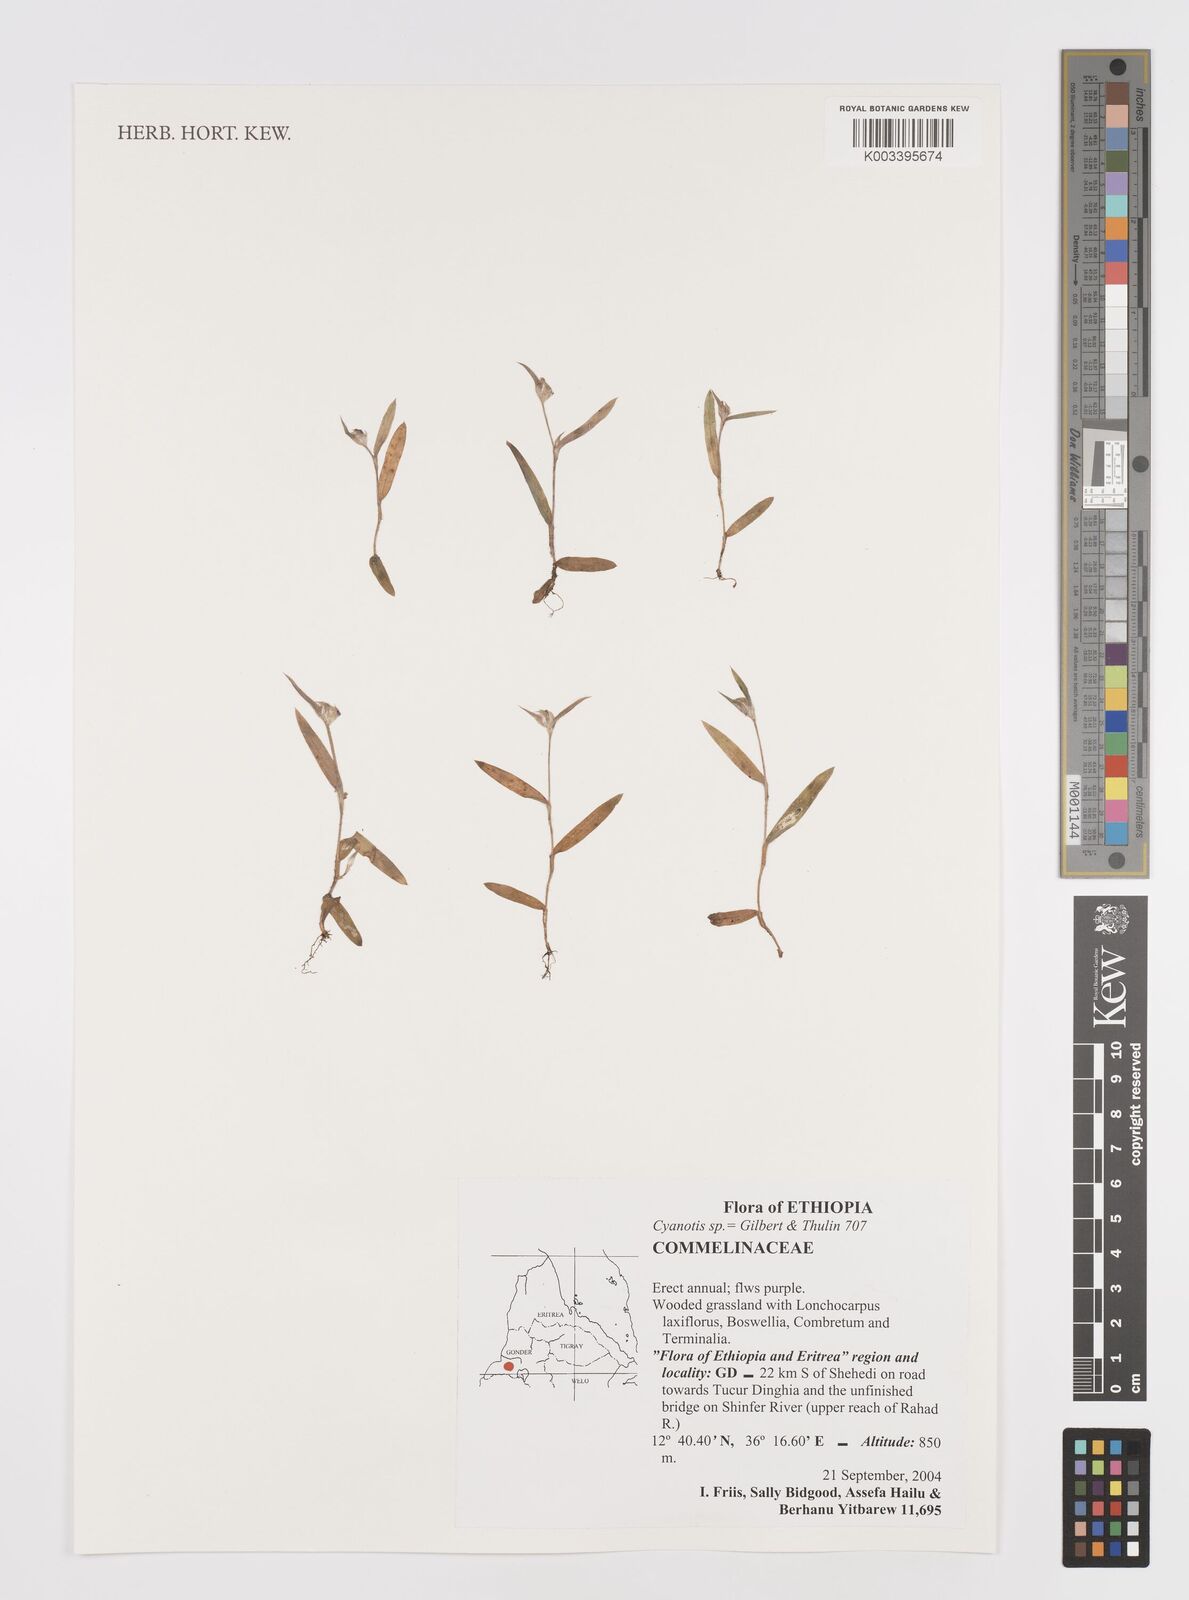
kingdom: Plantae
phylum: Tracheophyta
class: Liliopsida
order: Commelinales
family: Commelinaceae
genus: Cyanotis
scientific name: Cyanotis
